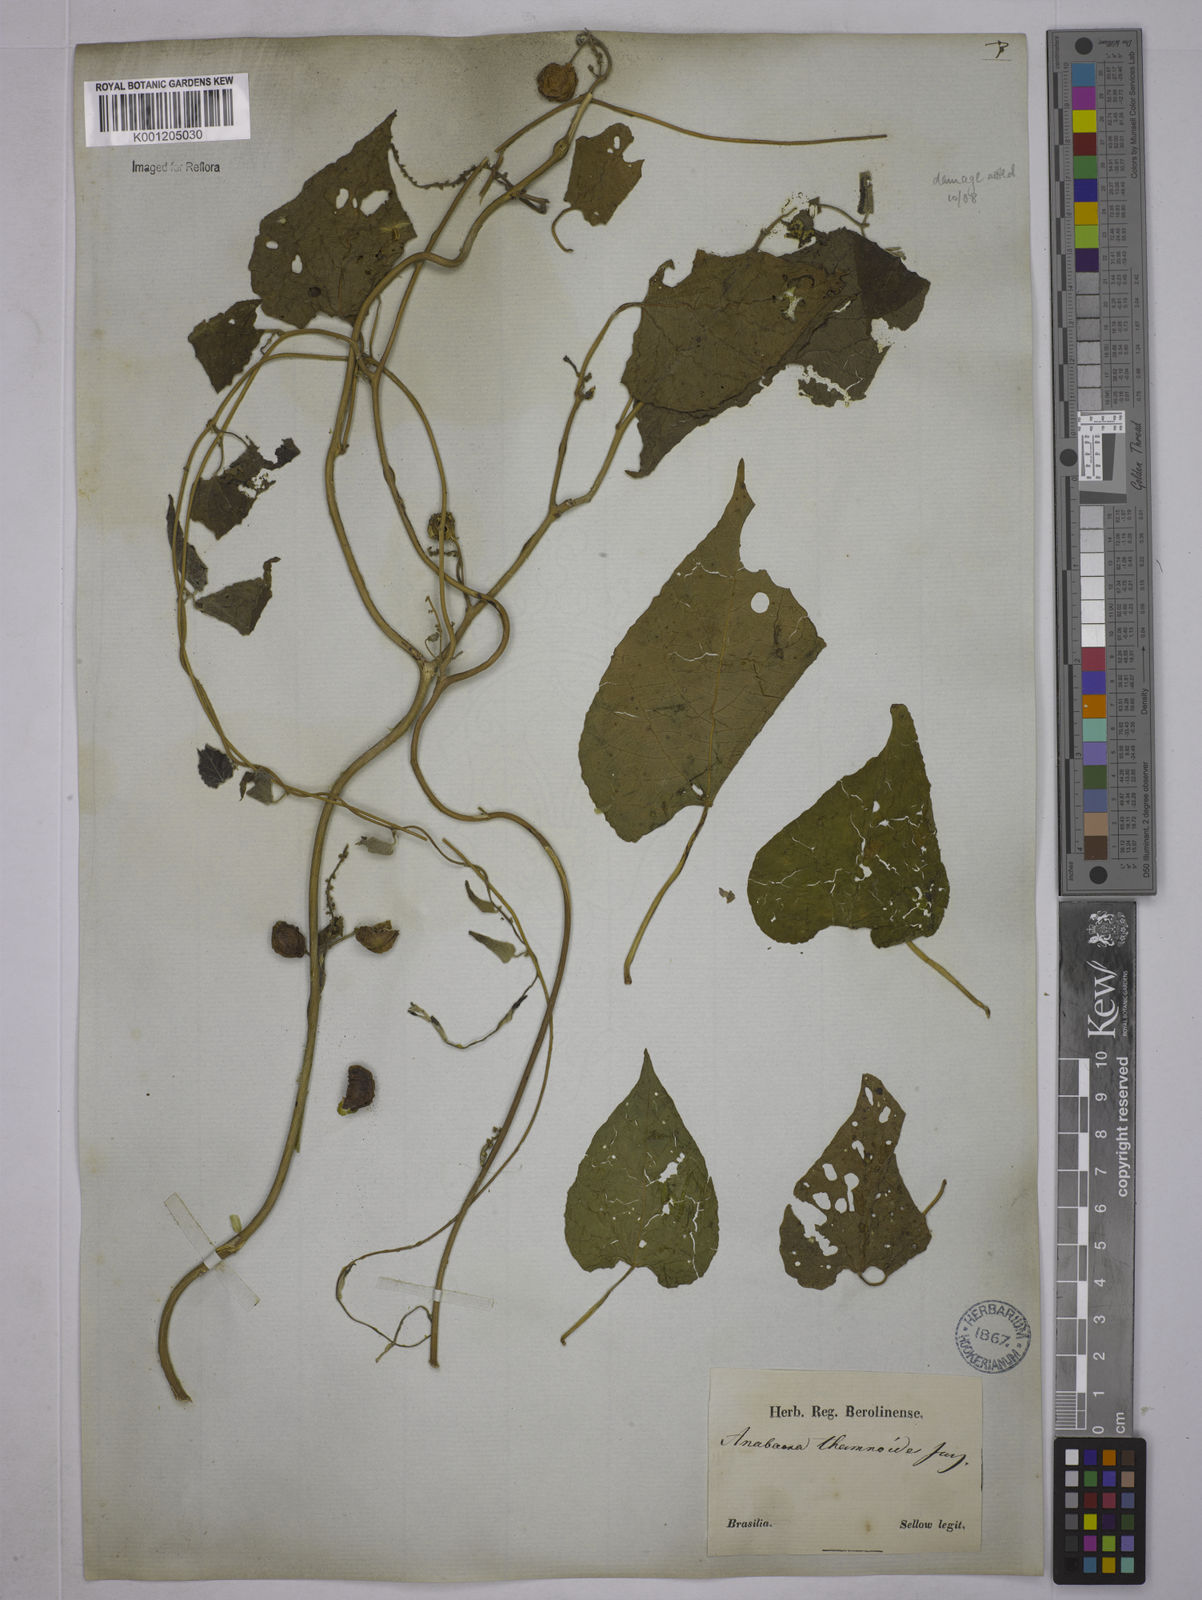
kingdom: Plantae
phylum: Tracheophyta
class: Magnoliopsida
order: Malpighiales
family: Euphorbiaceae
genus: Romanoa
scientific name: Romanoa tamnoides
